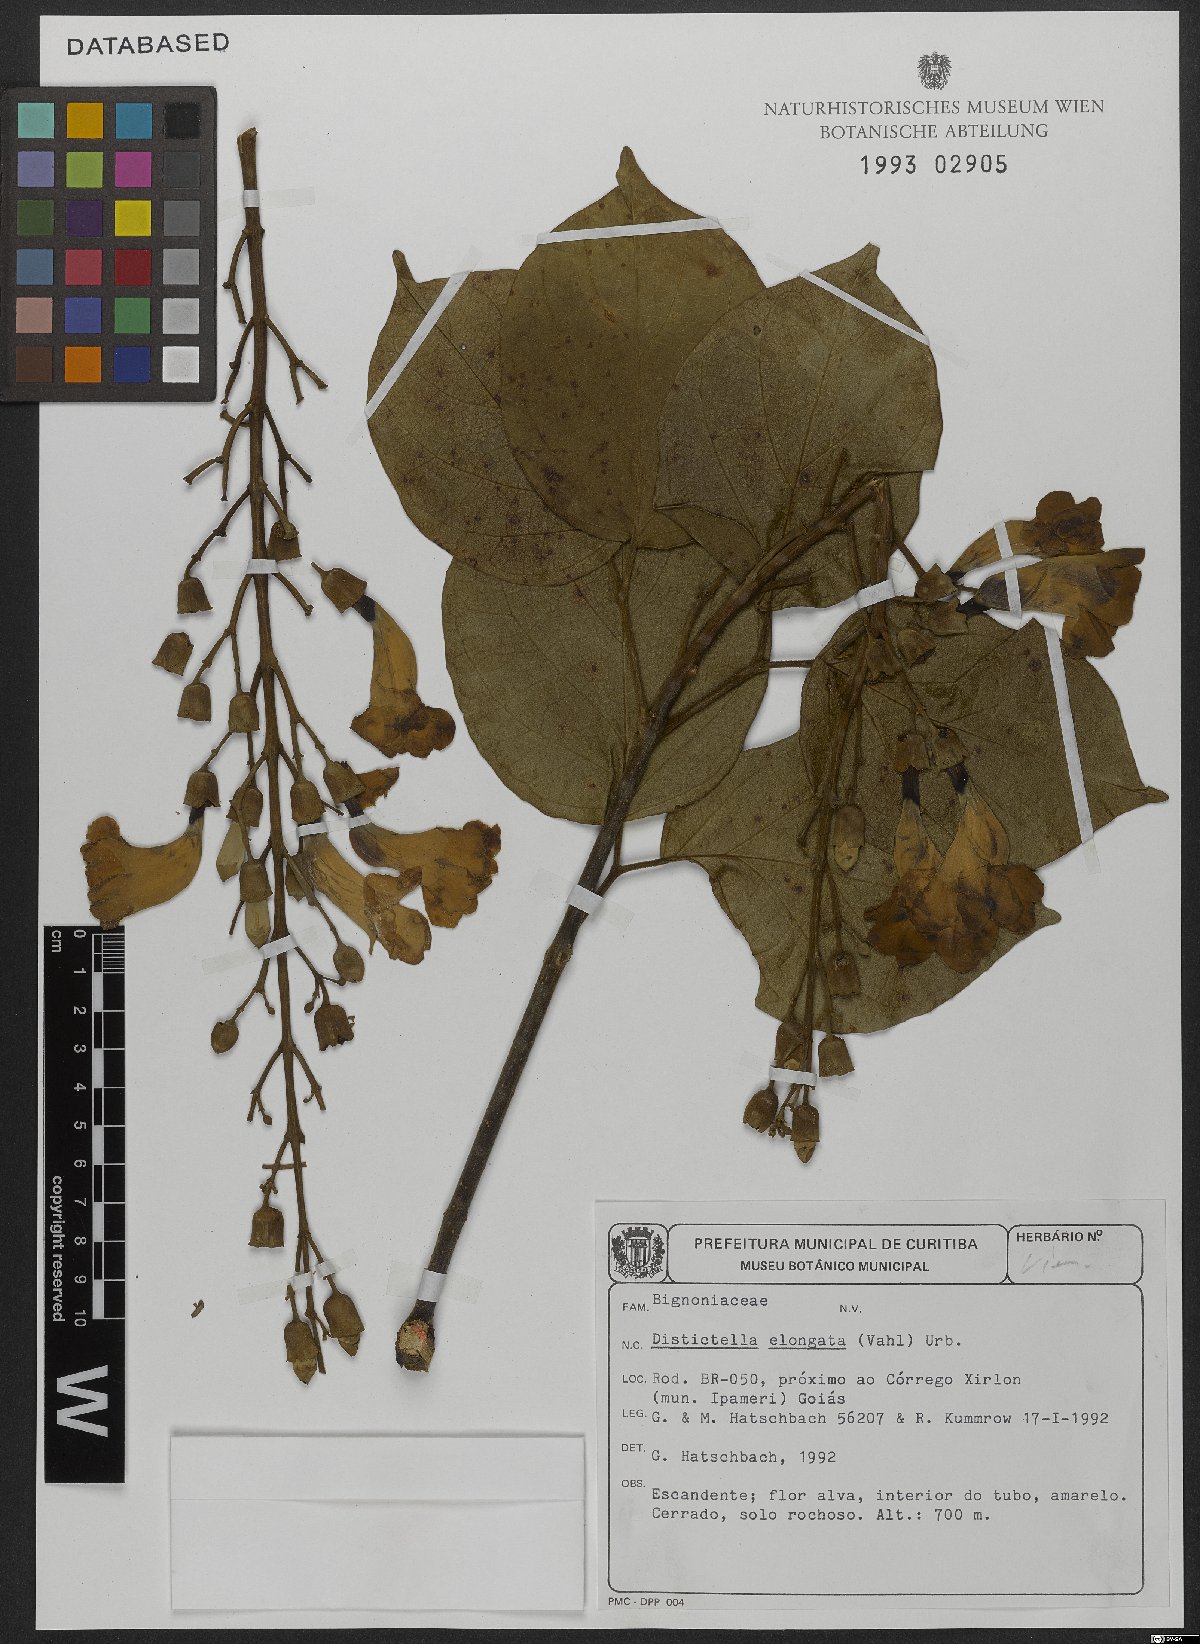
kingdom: Plantae
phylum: Tracheophyta
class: Magnoliopsida
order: Lamiales
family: Bignoniaceae
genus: Amphilophium
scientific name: Amphilophium elongatum
